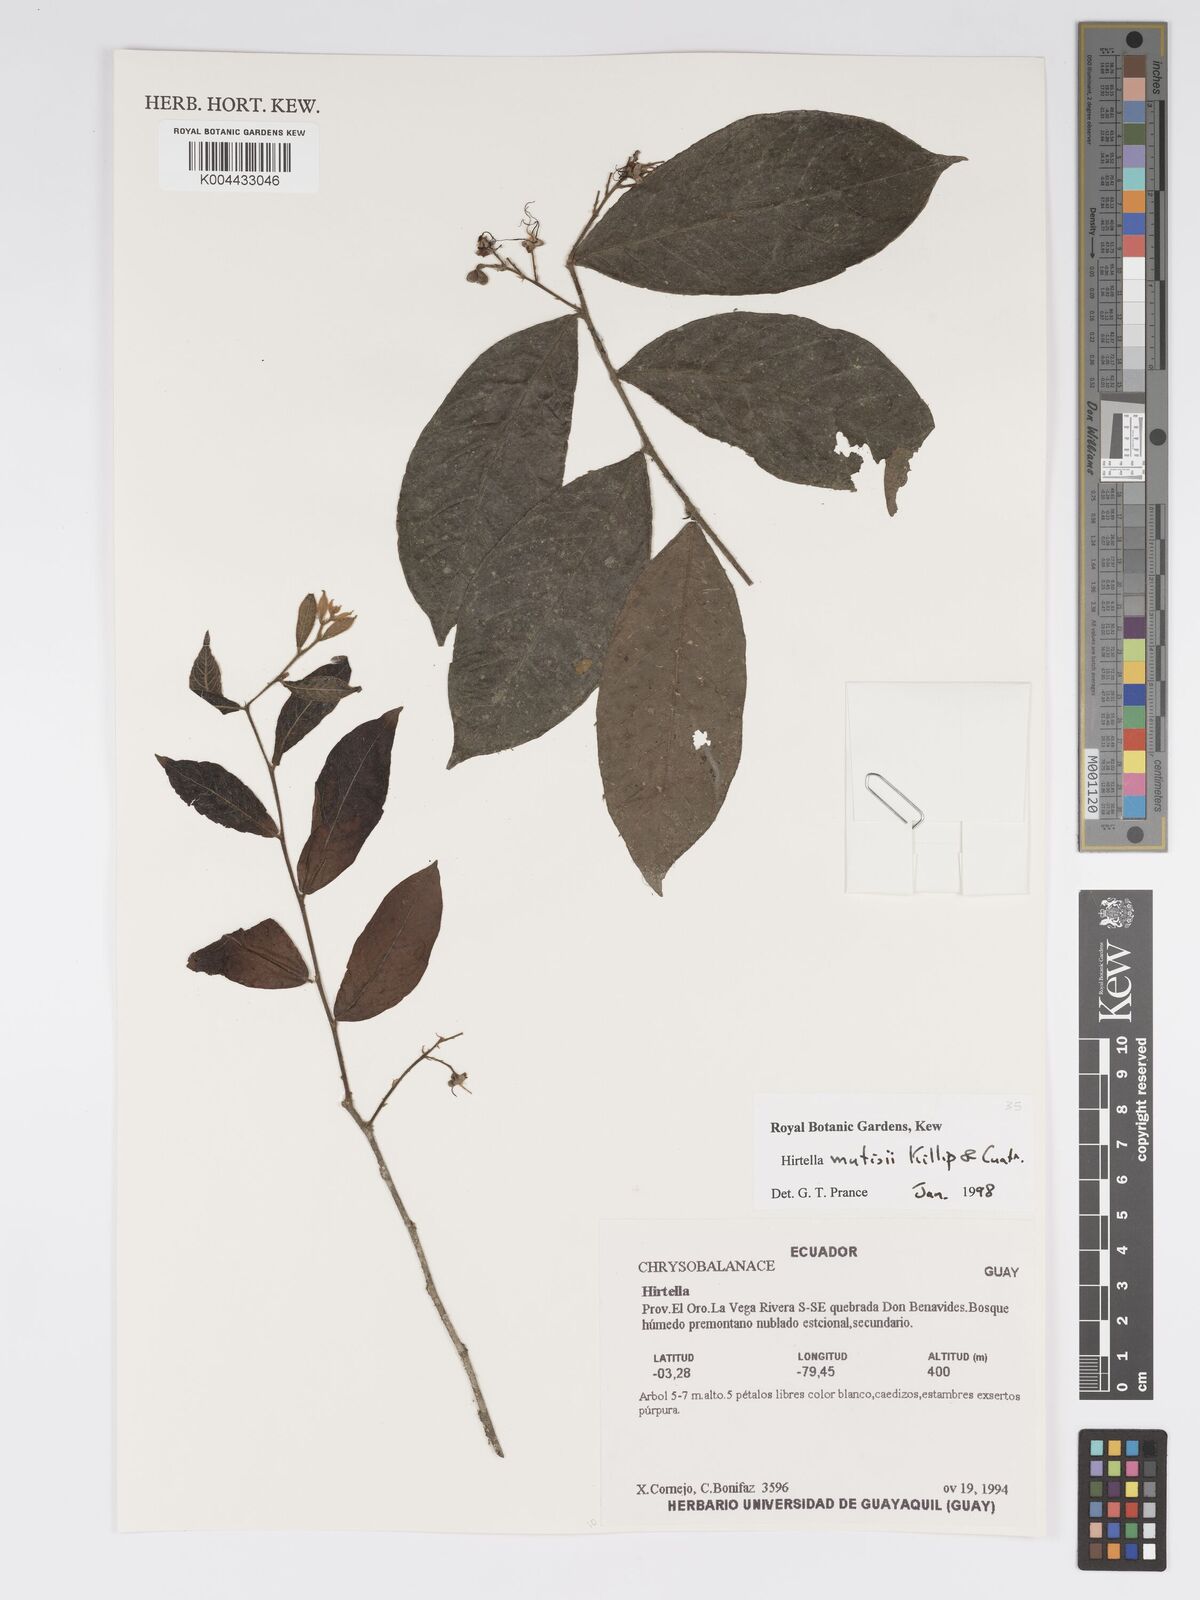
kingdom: Plantae
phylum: Tracheophyta
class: Magnoliopsida
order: Malpighiales
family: Chrysobalanaceae
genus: Hirtella
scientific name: Hirtella mutisii
